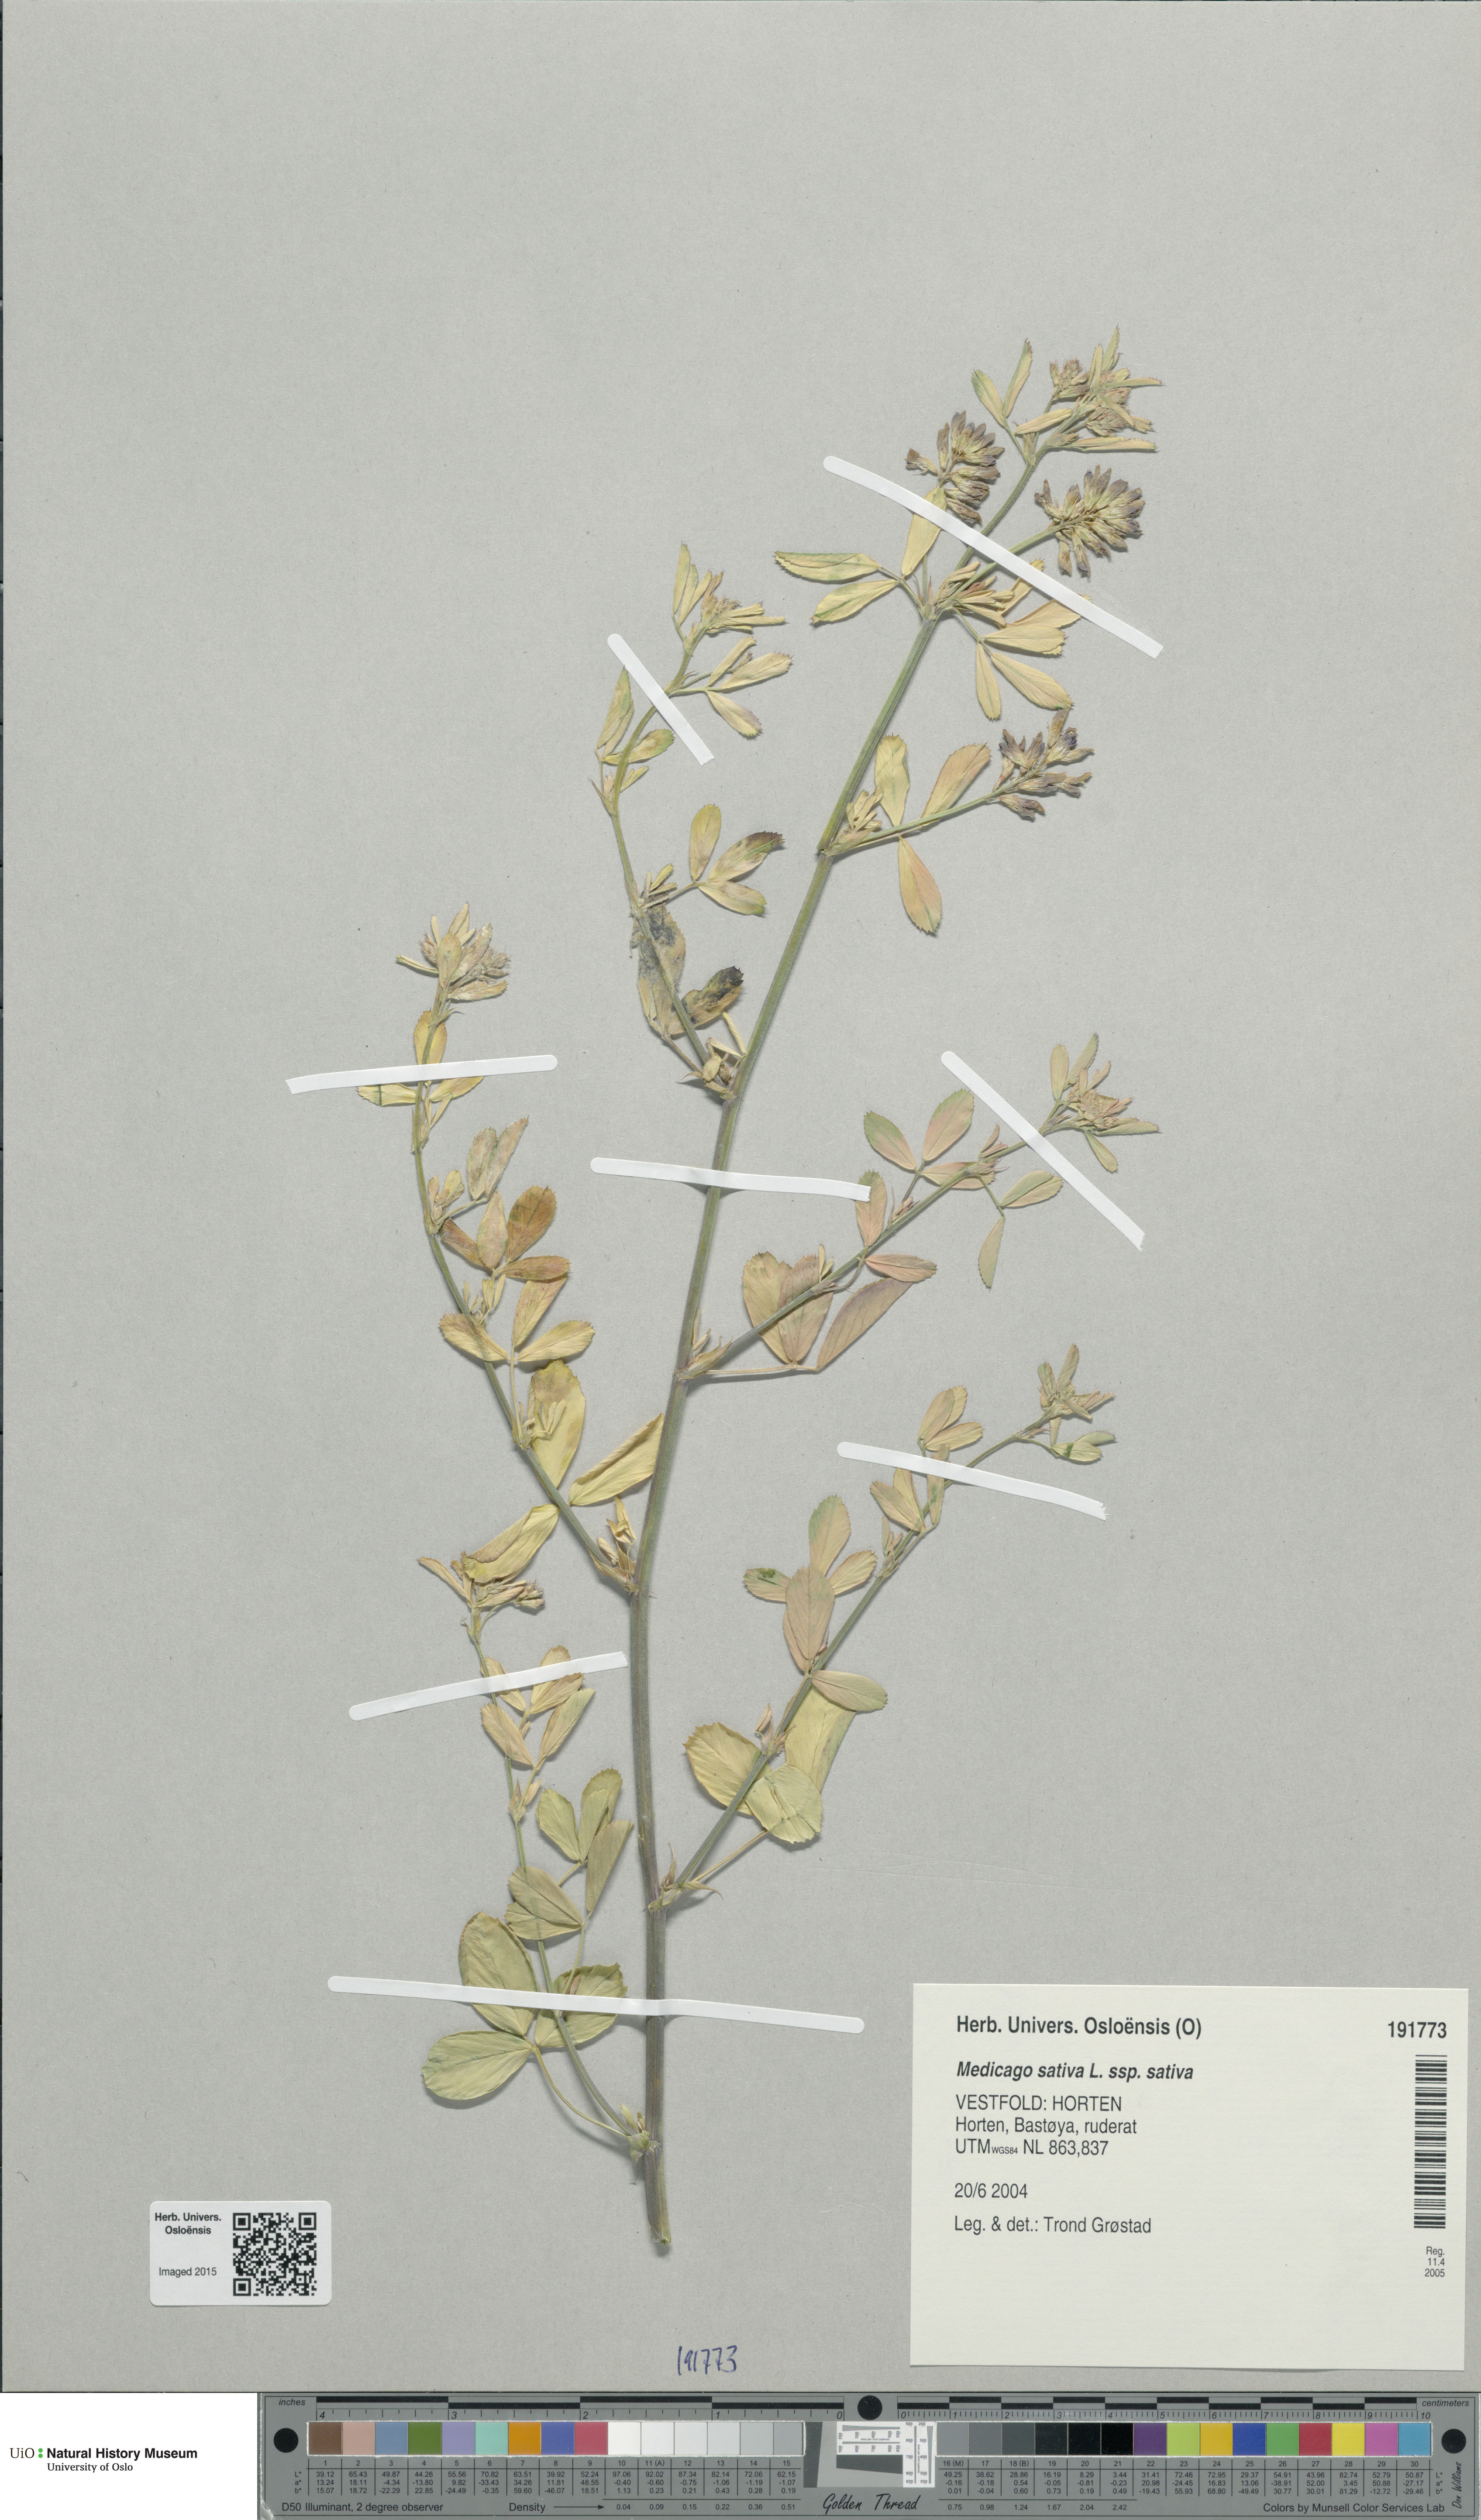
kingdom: Plantae
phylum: Tracheophyta
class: Magnoliopsida
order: Fabales
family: Fabaceae
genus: Medicago
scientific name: Medicago sativa
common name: Alfalfa
